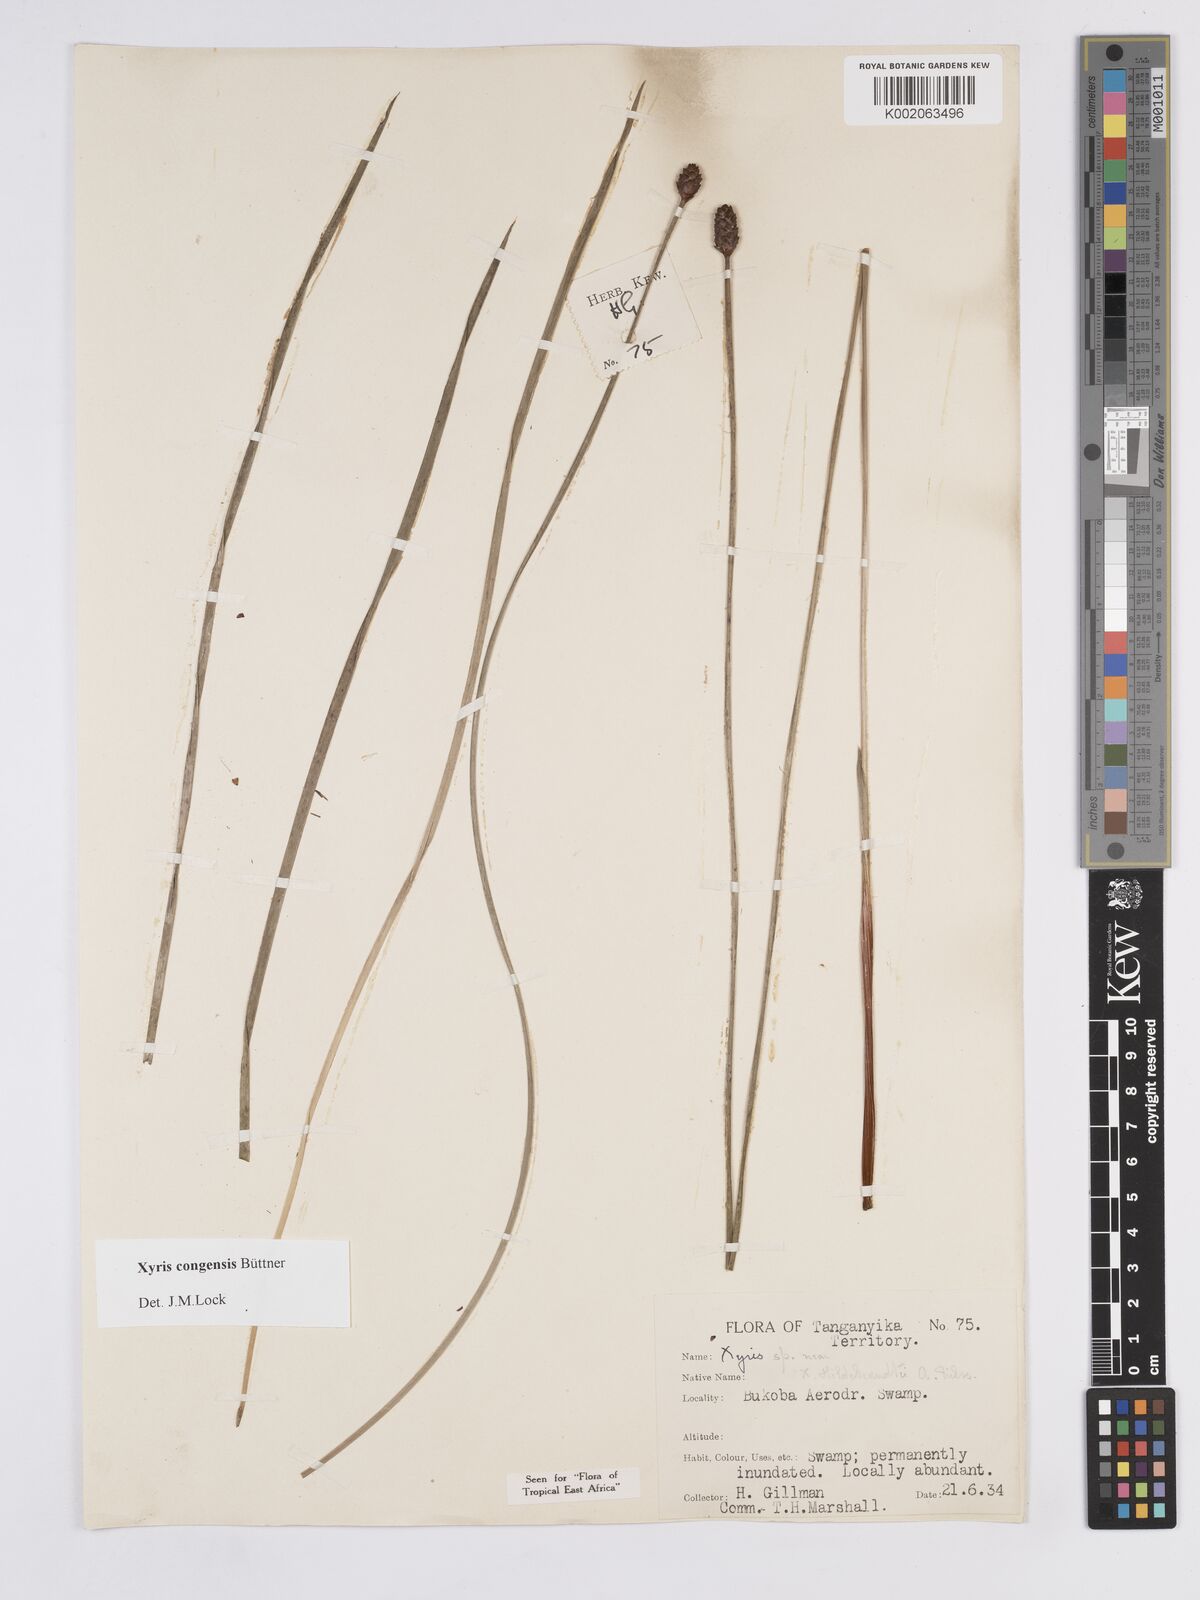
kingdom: Plantae
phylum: Tracheophyta
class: Liliopsida
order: Poales
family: Xyridaceae
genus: Xyris
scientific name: Xyris congensis
